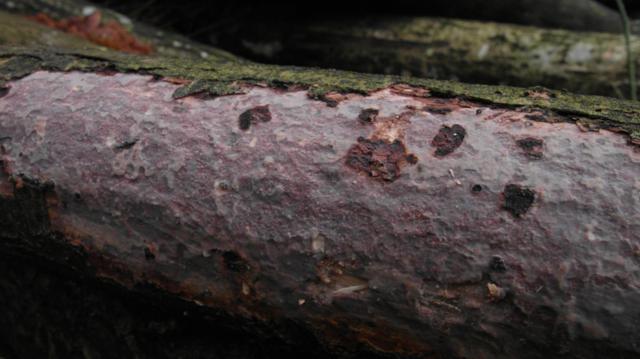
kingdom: Fungi
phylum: Basidiomycota
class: Agaricomycetes
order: Corticiales
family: Vuilleminiaceae
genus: Vuilleminia
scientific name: Vuilleminia comedens
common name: almindelig barksprænger
